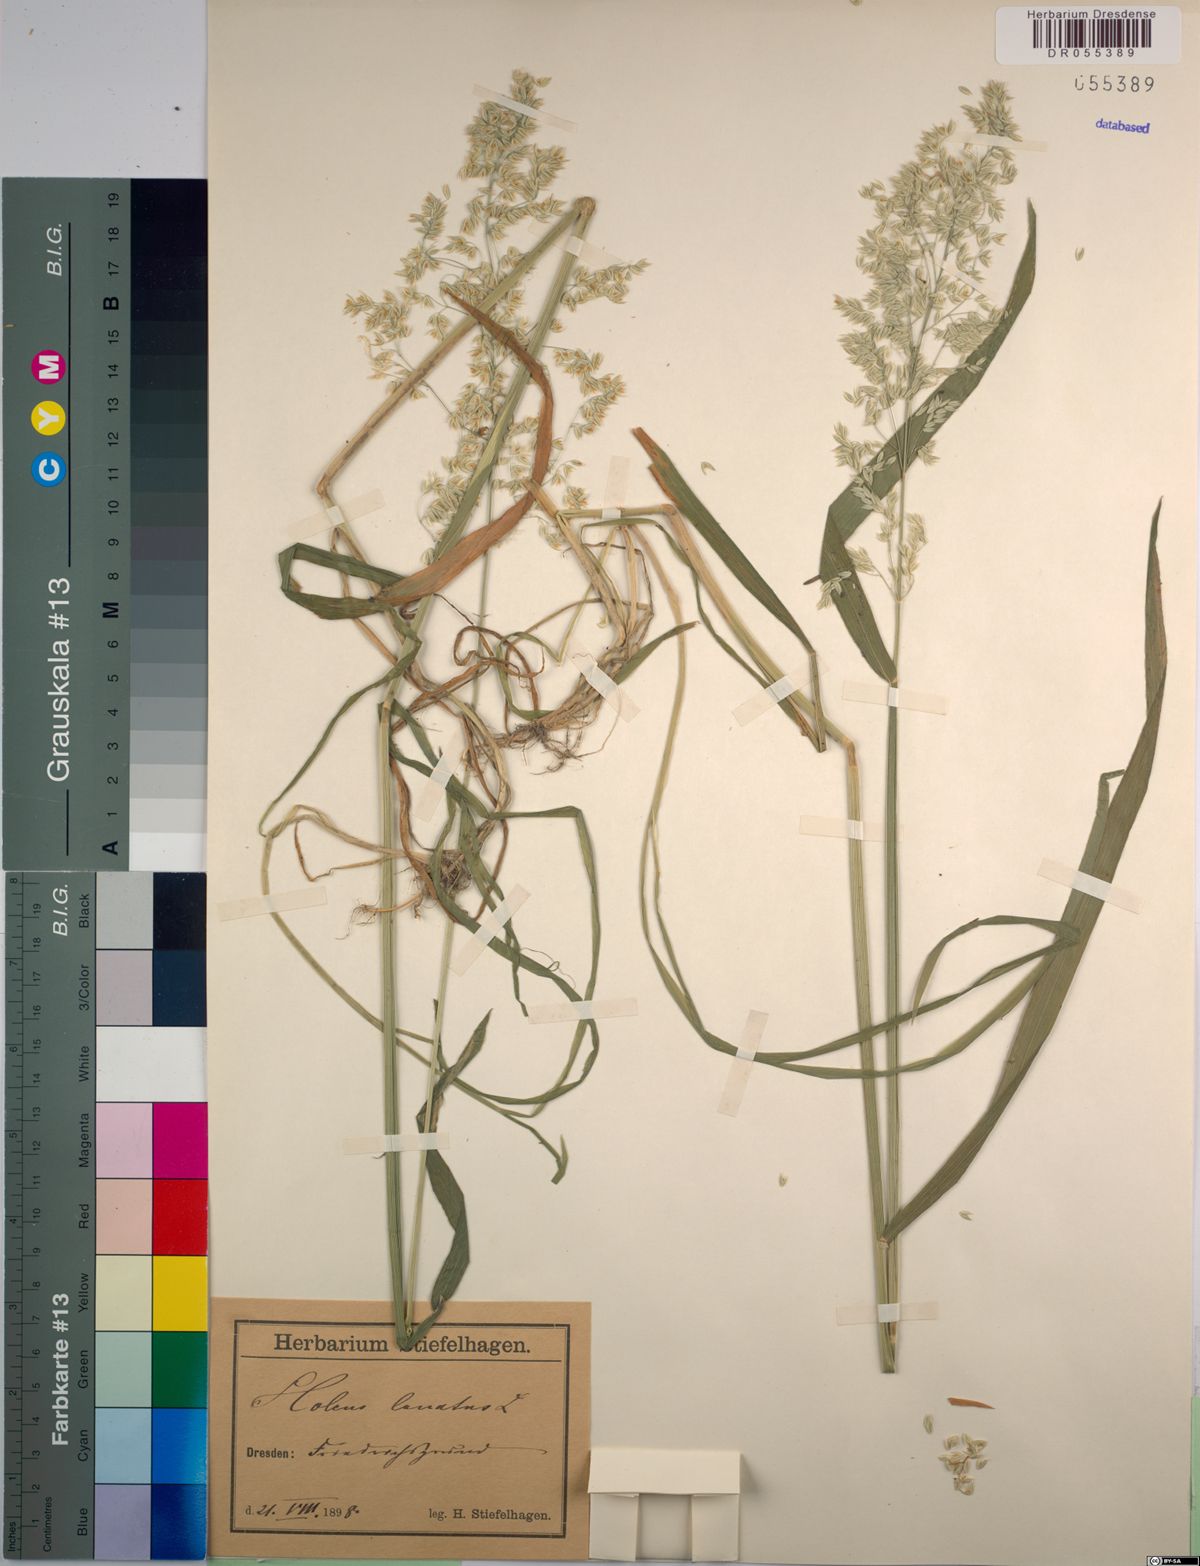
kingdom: Plantae
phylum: Tracheophyta
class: Liliopsida
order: Poales
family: Poaceae
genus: Holcus
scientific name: Holcus lanatus
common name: Yorkshire-fog
